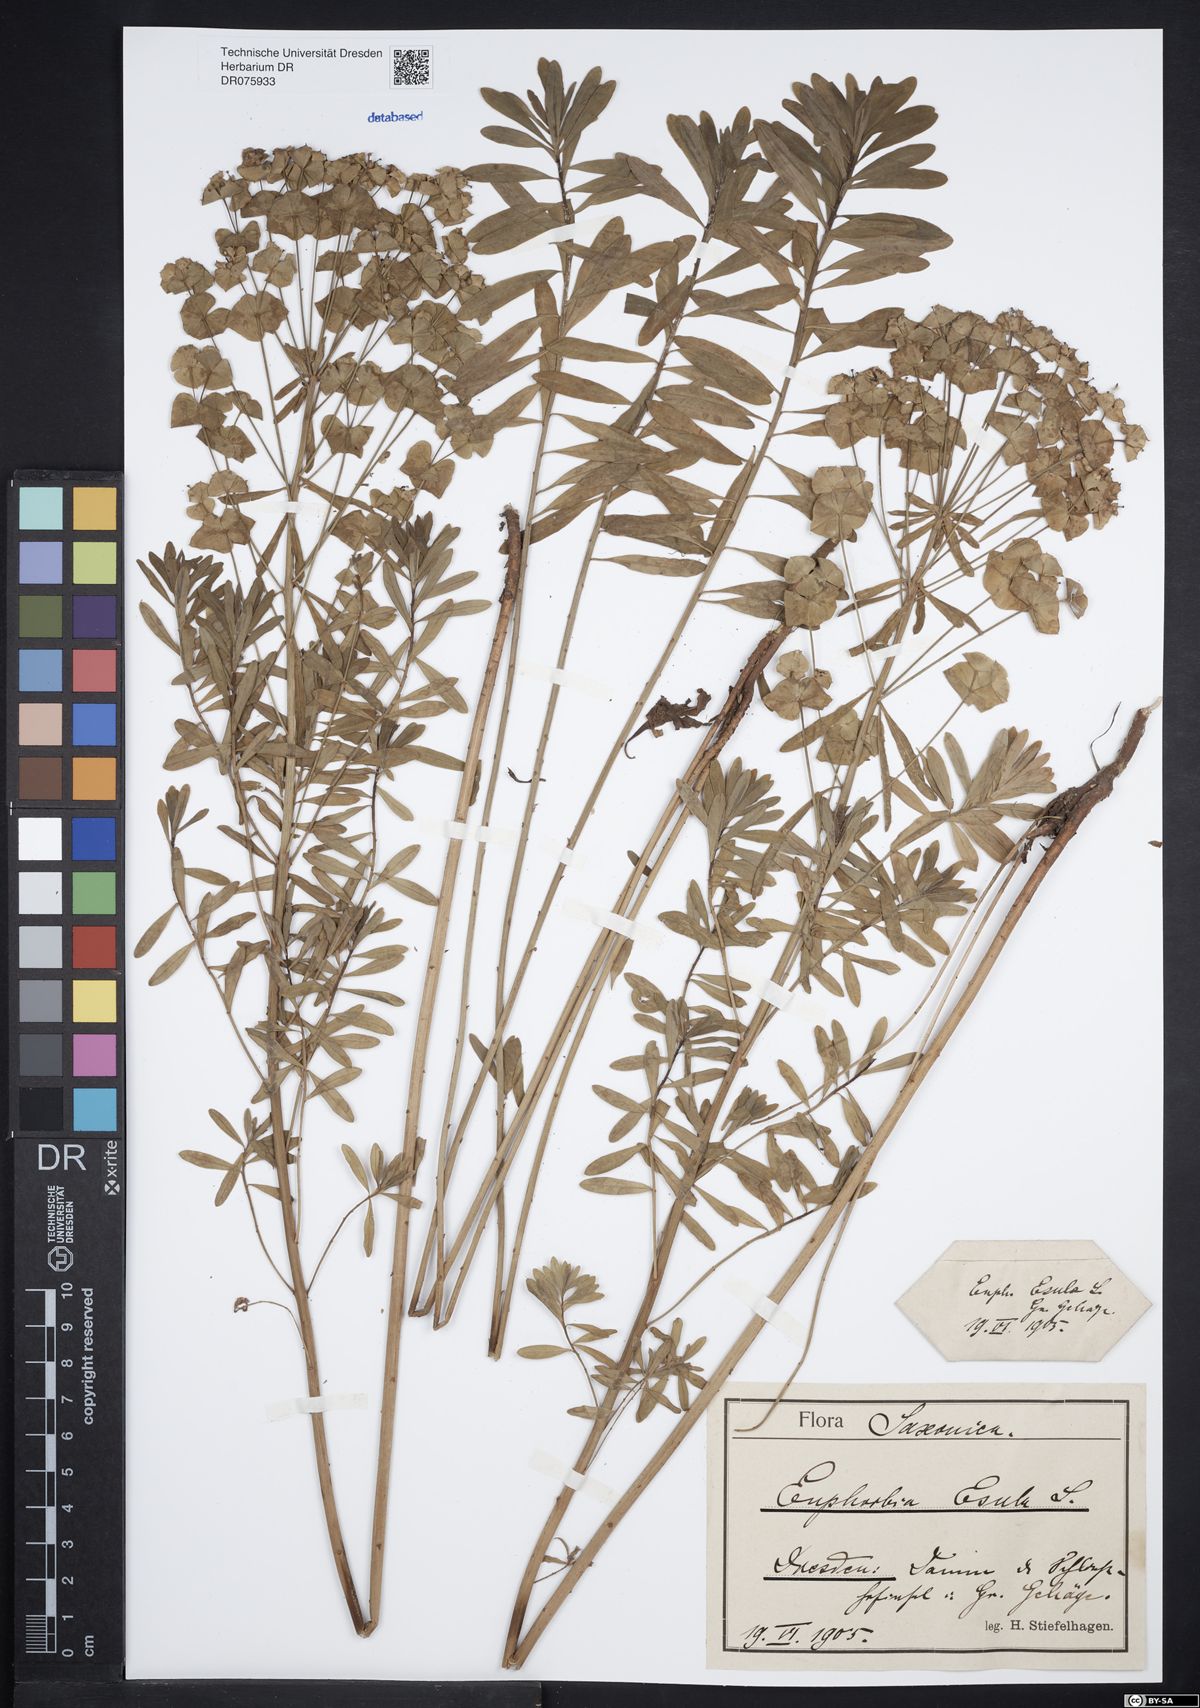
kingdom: Plantae
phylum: Tracheophyta
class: Magnoliopsida
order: Malpighiales
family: Euphorbiaceae
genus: Euphorbia
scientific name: Euphorbia esula
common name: Leafy spurge
